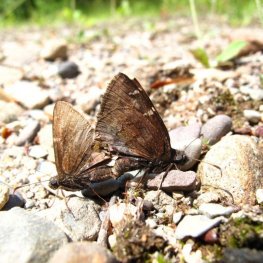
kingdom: Animalia
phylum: Arthropoda
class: Insecta
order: Lepidoptera
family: Hesperiidae
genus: Autochton
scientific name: Autochton
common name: Northern Cloudywing
